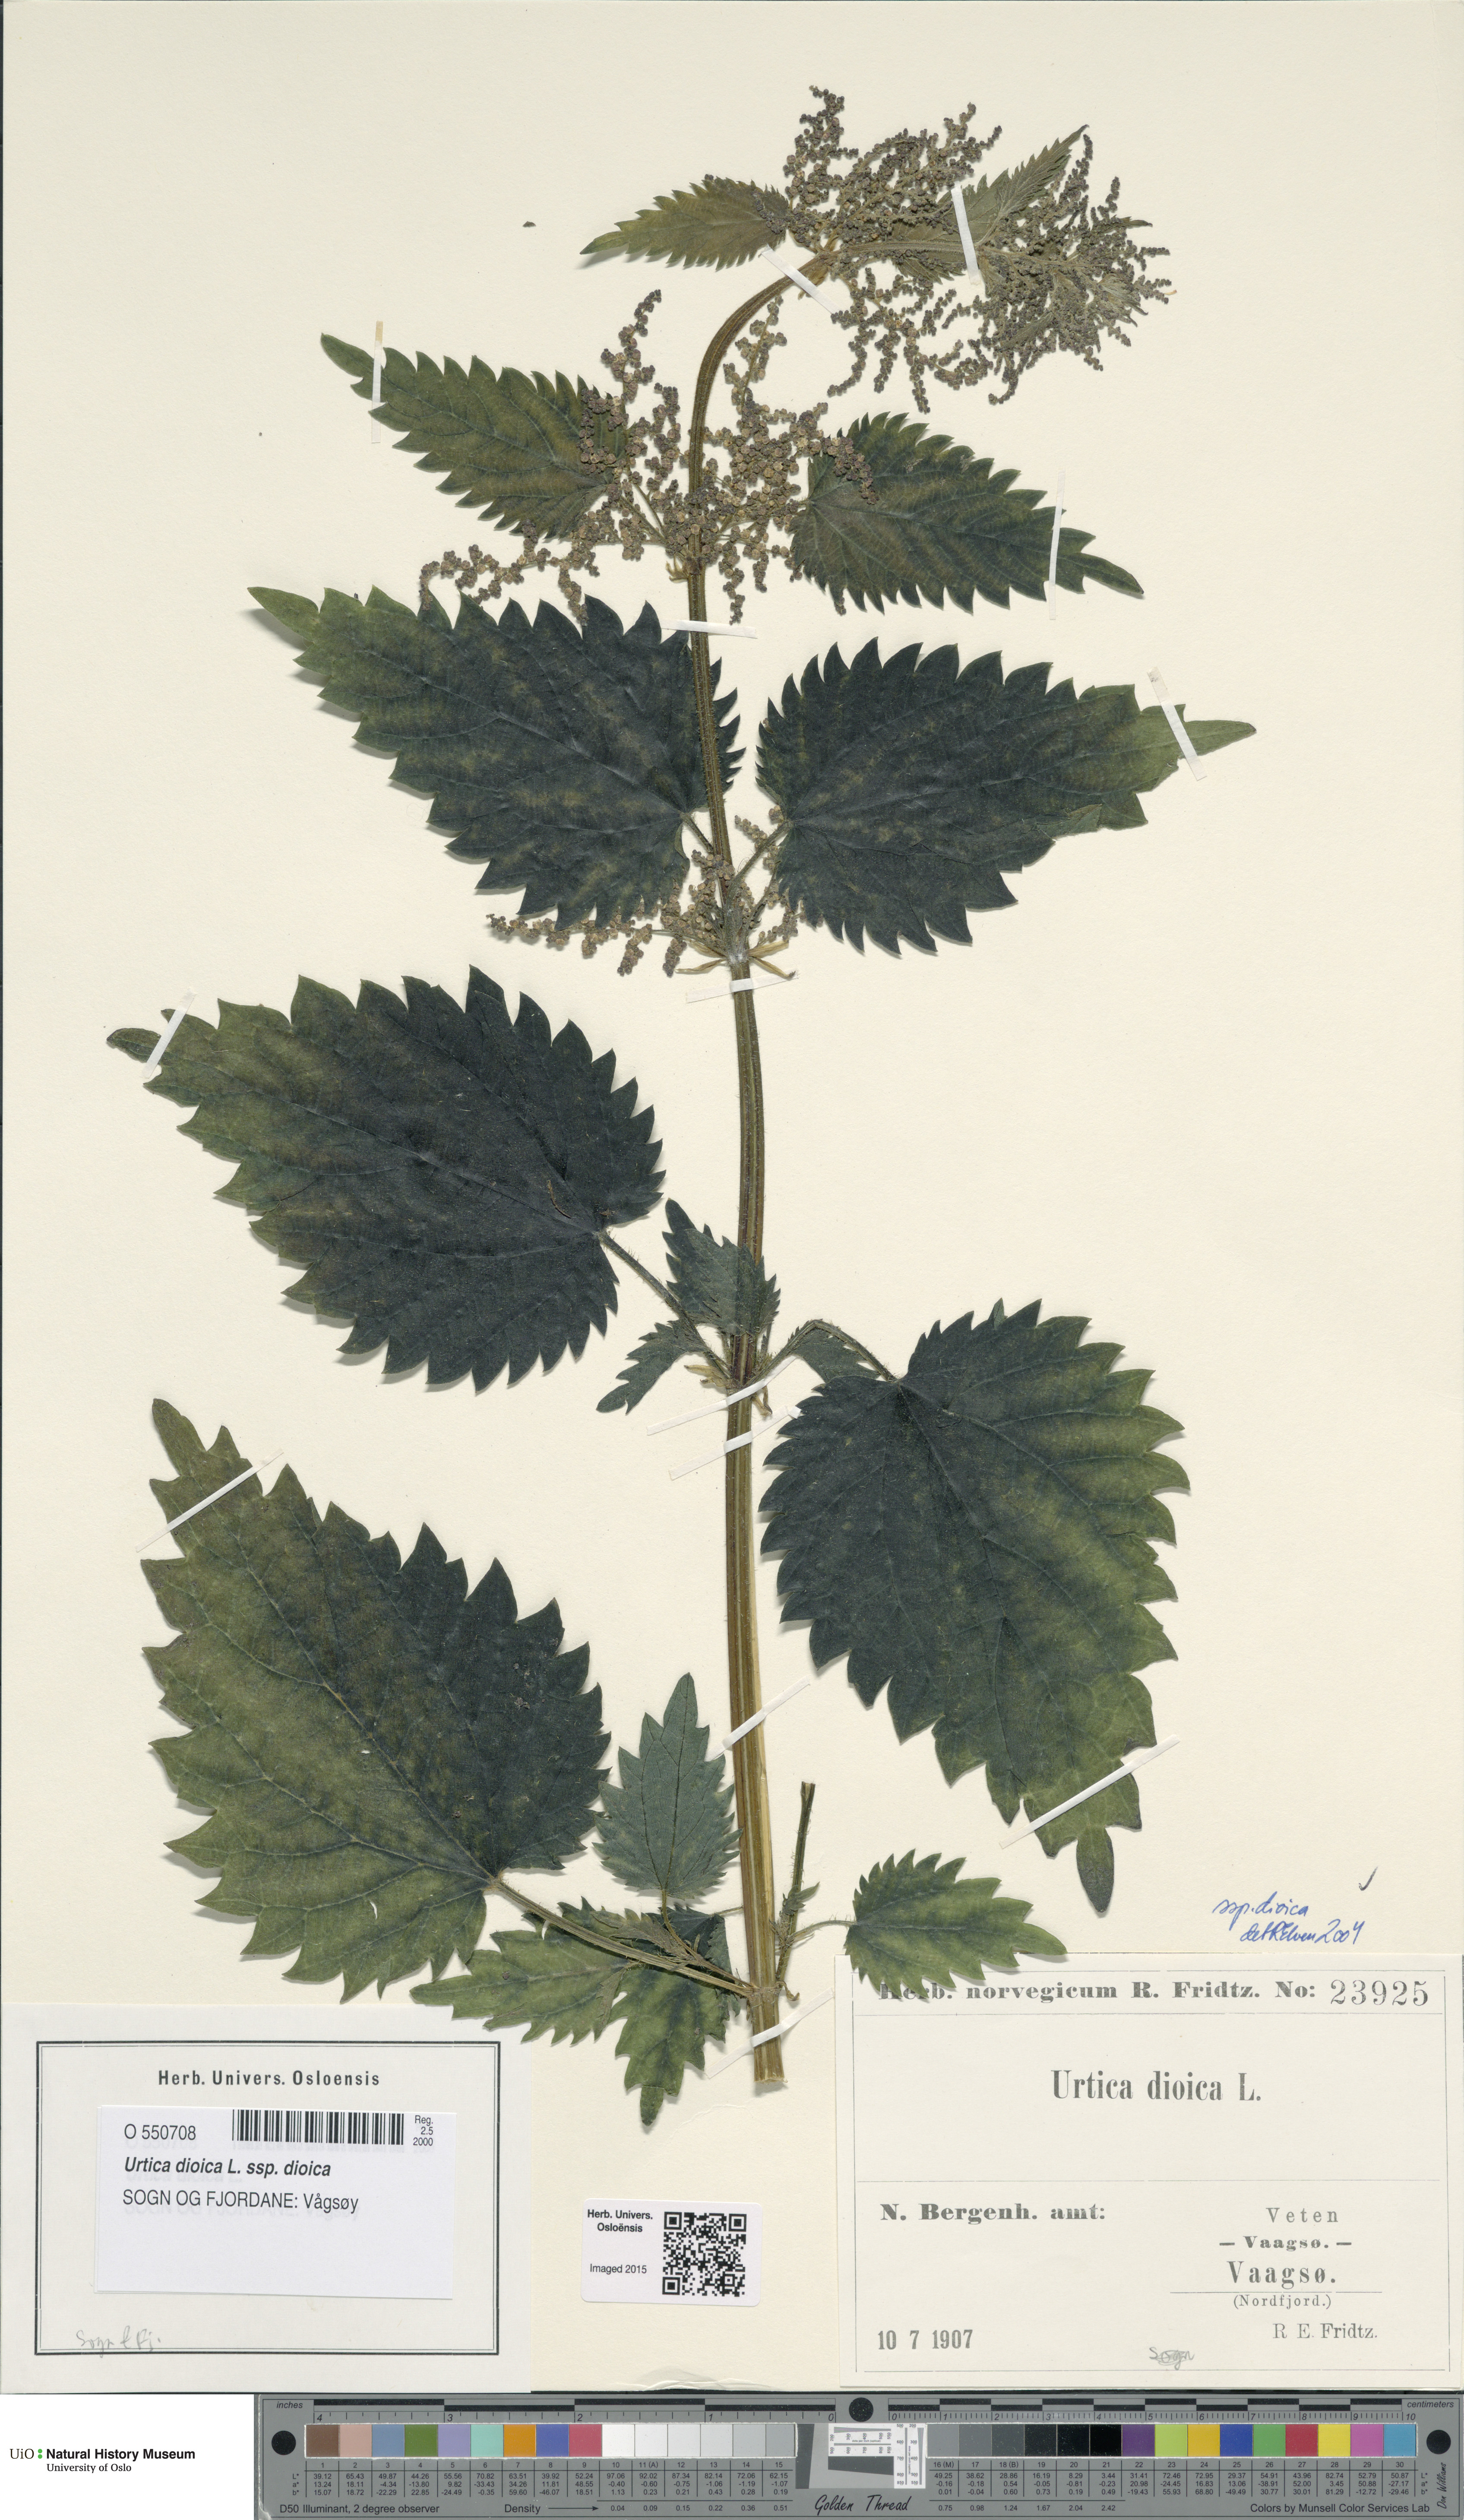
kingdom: Plantae
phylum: Tracheophyta
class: Magnoliopsida
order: Rosales
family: Urticaceae
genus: Urtica
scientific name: Urtica dioica
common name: Common nettle
